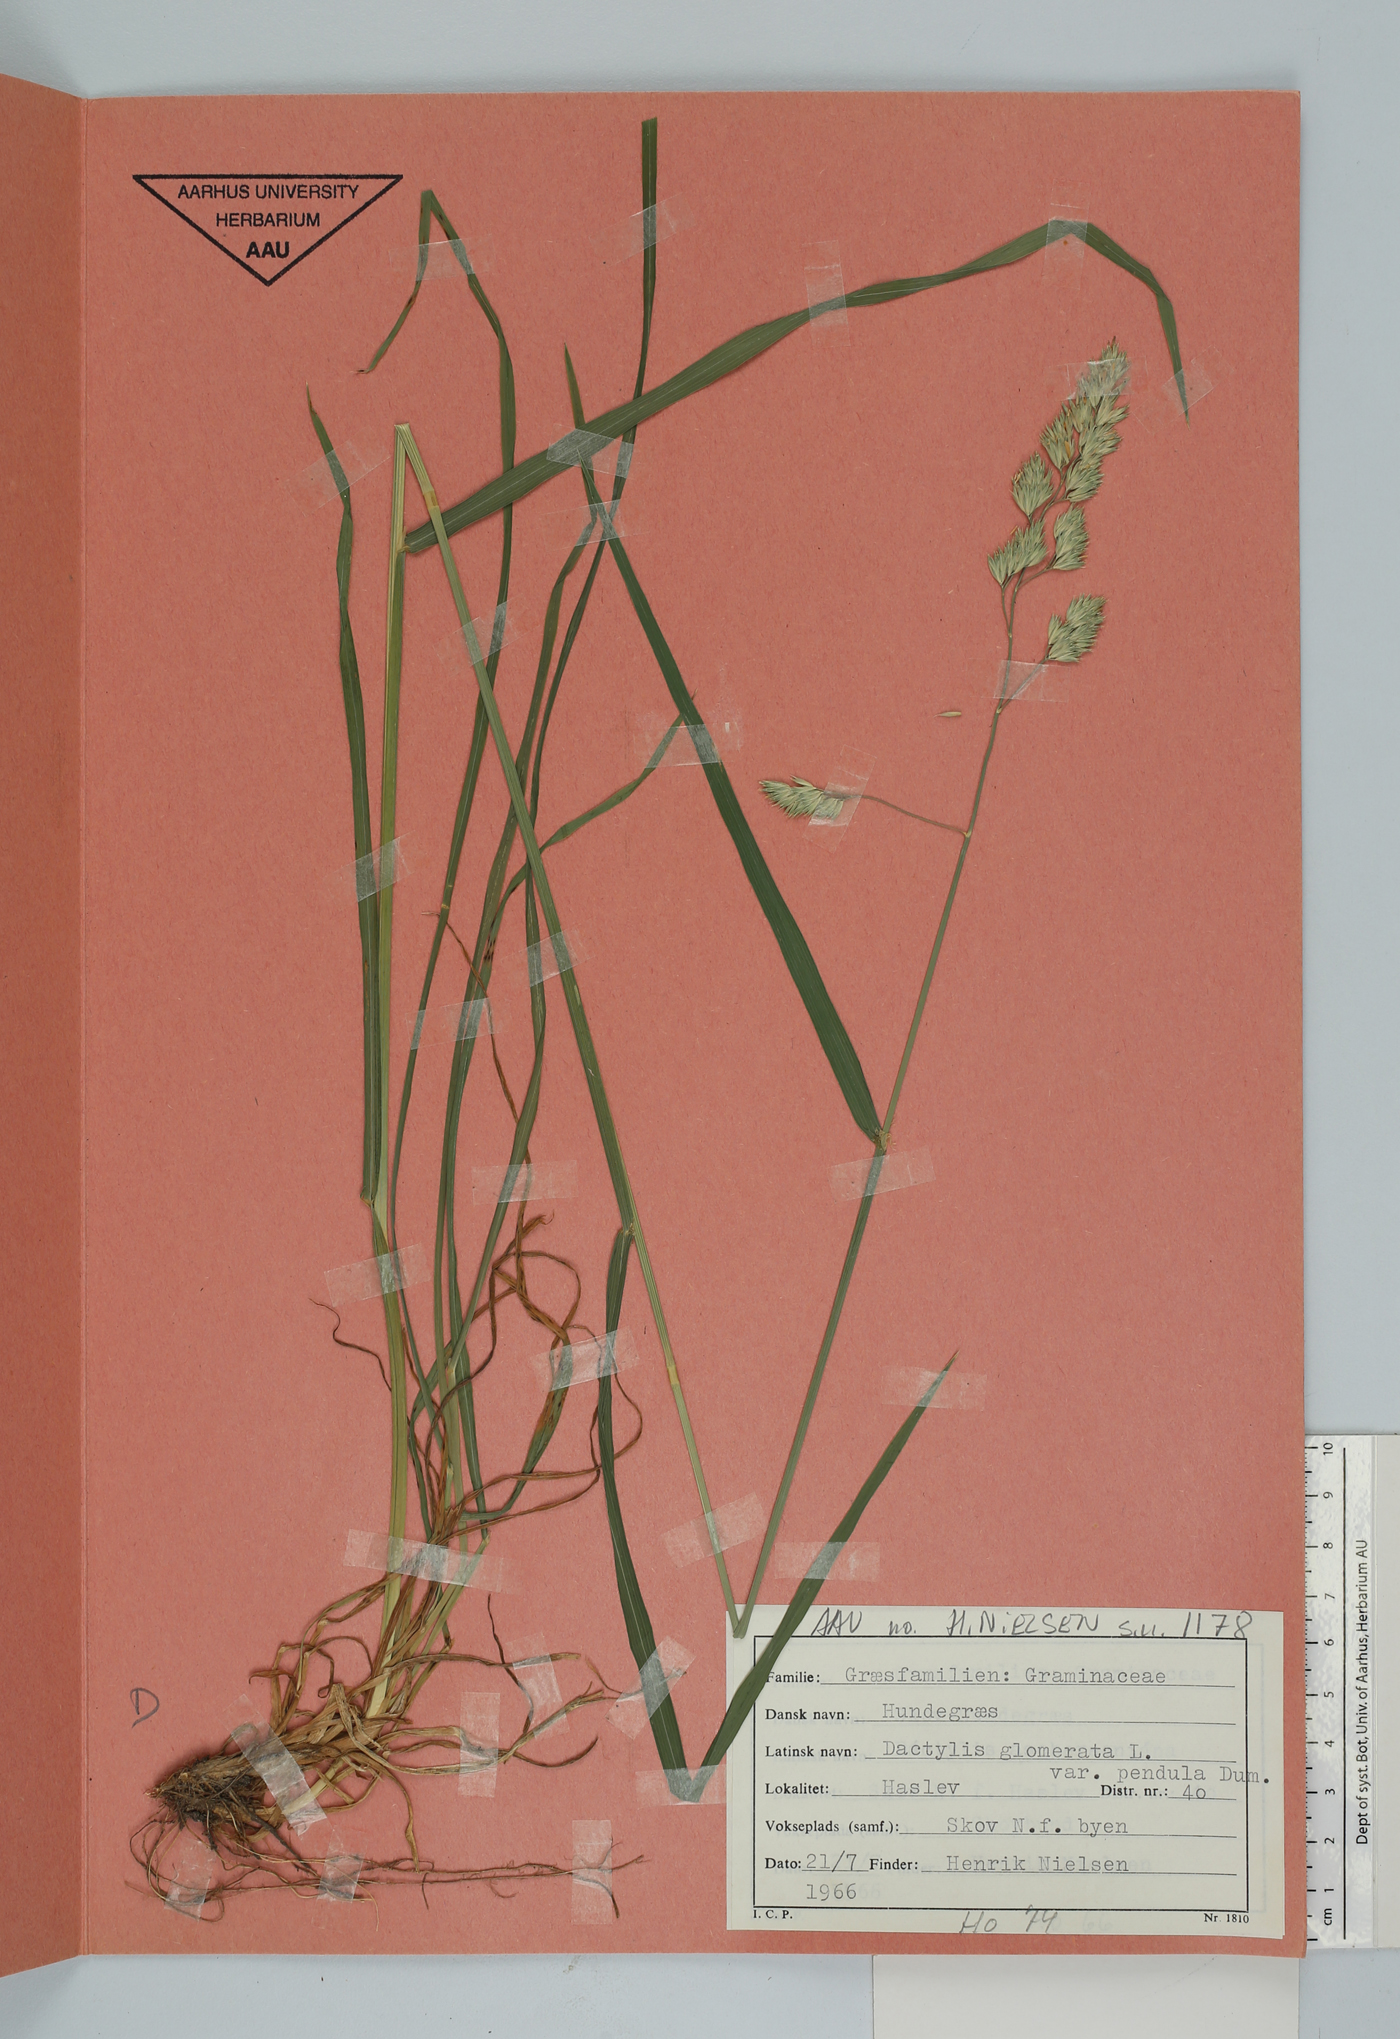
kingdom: Plantae
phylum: Tracheophyta
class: Liliopsida
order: Poales
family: Poaceae
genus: Dactylis
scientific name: Dactylis glomerata
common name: Orchardgrass
